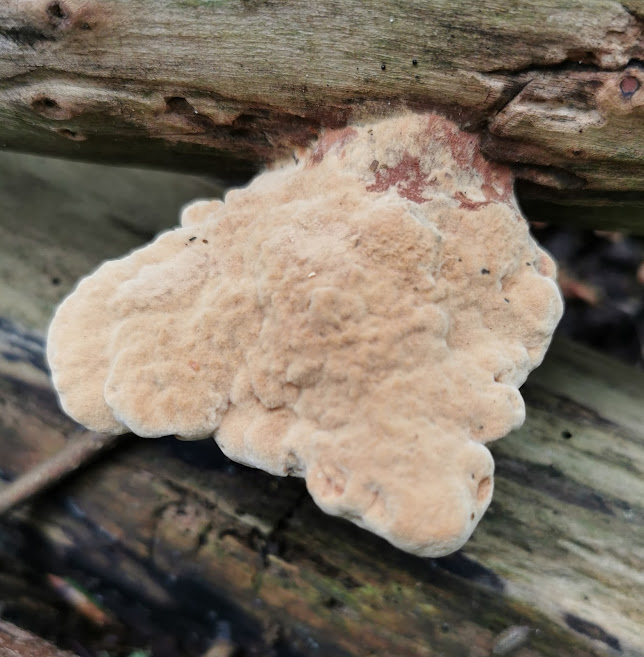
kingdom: Fungi
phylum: Basidiomycota
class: Agaricomycetes
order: Polyporales
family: Phanerochaetaceae
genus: Hapalopilus
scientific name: Hapalopilus rutilans
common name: rødlig okkerporesvamp
